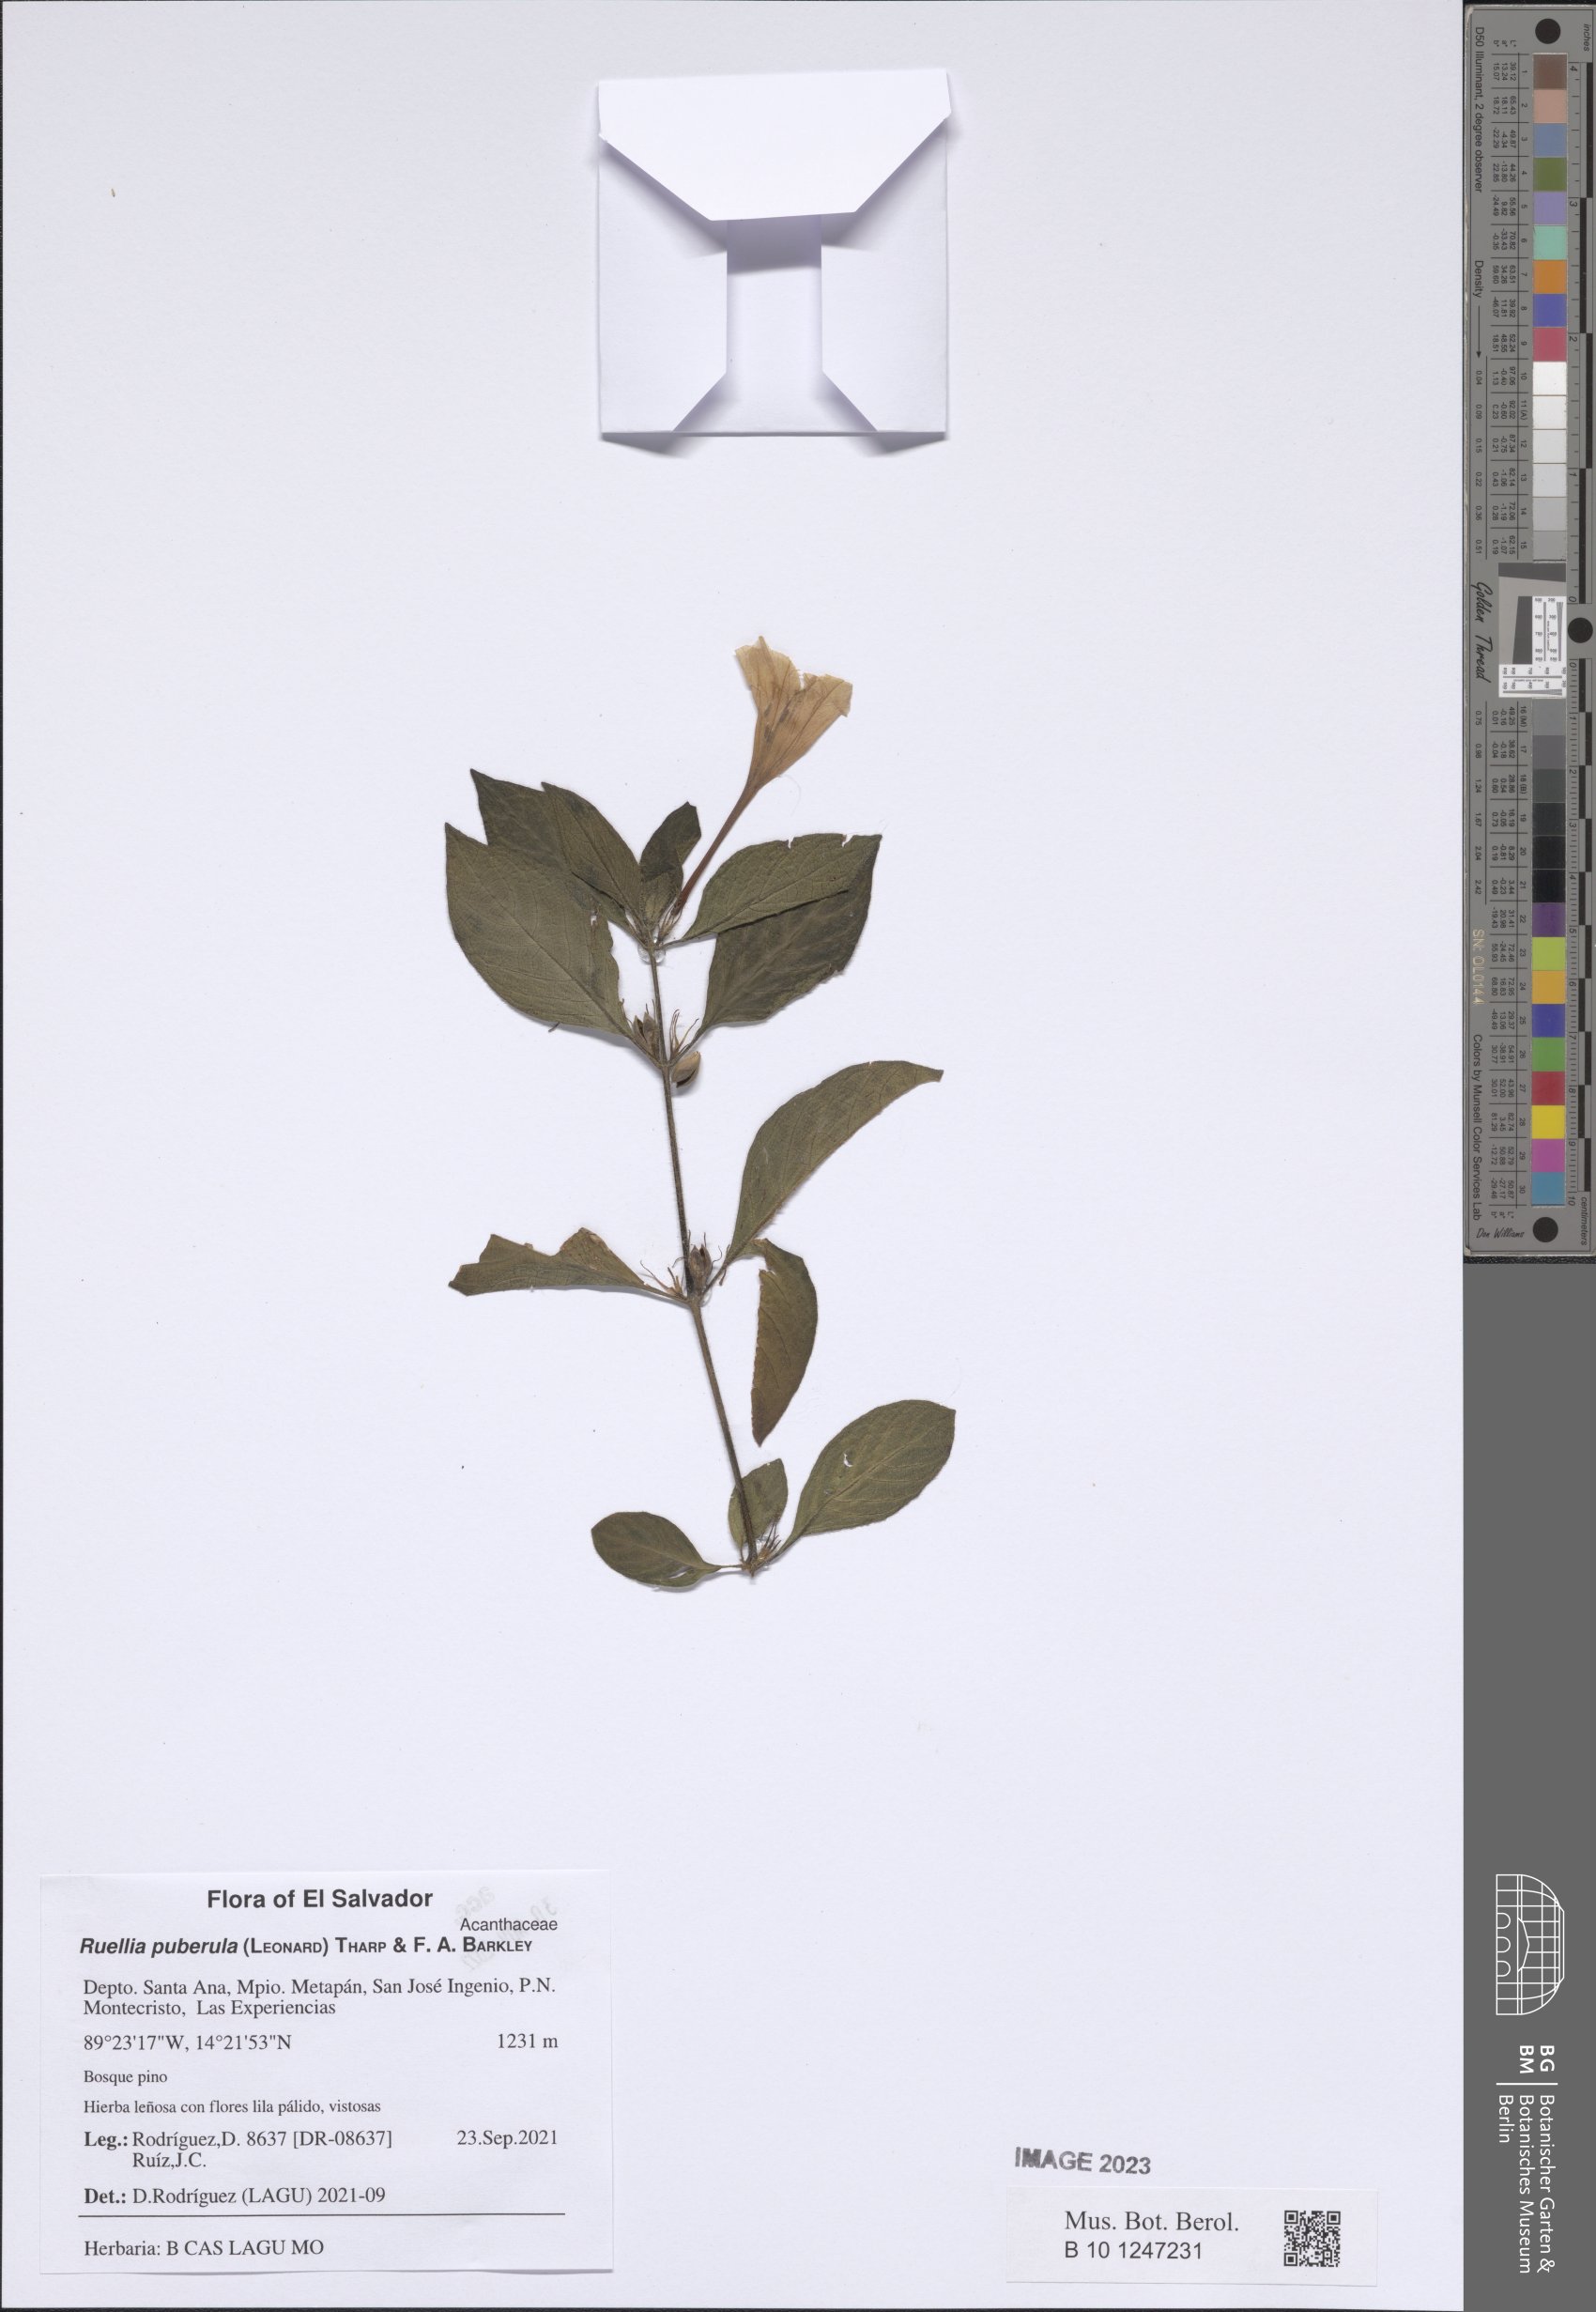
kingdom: Plantae
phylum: Tracheophyta
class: Magnoliopsida
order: Lamiales
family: Acanthaceae
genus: Ruellia
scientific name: Ruellia puberula
